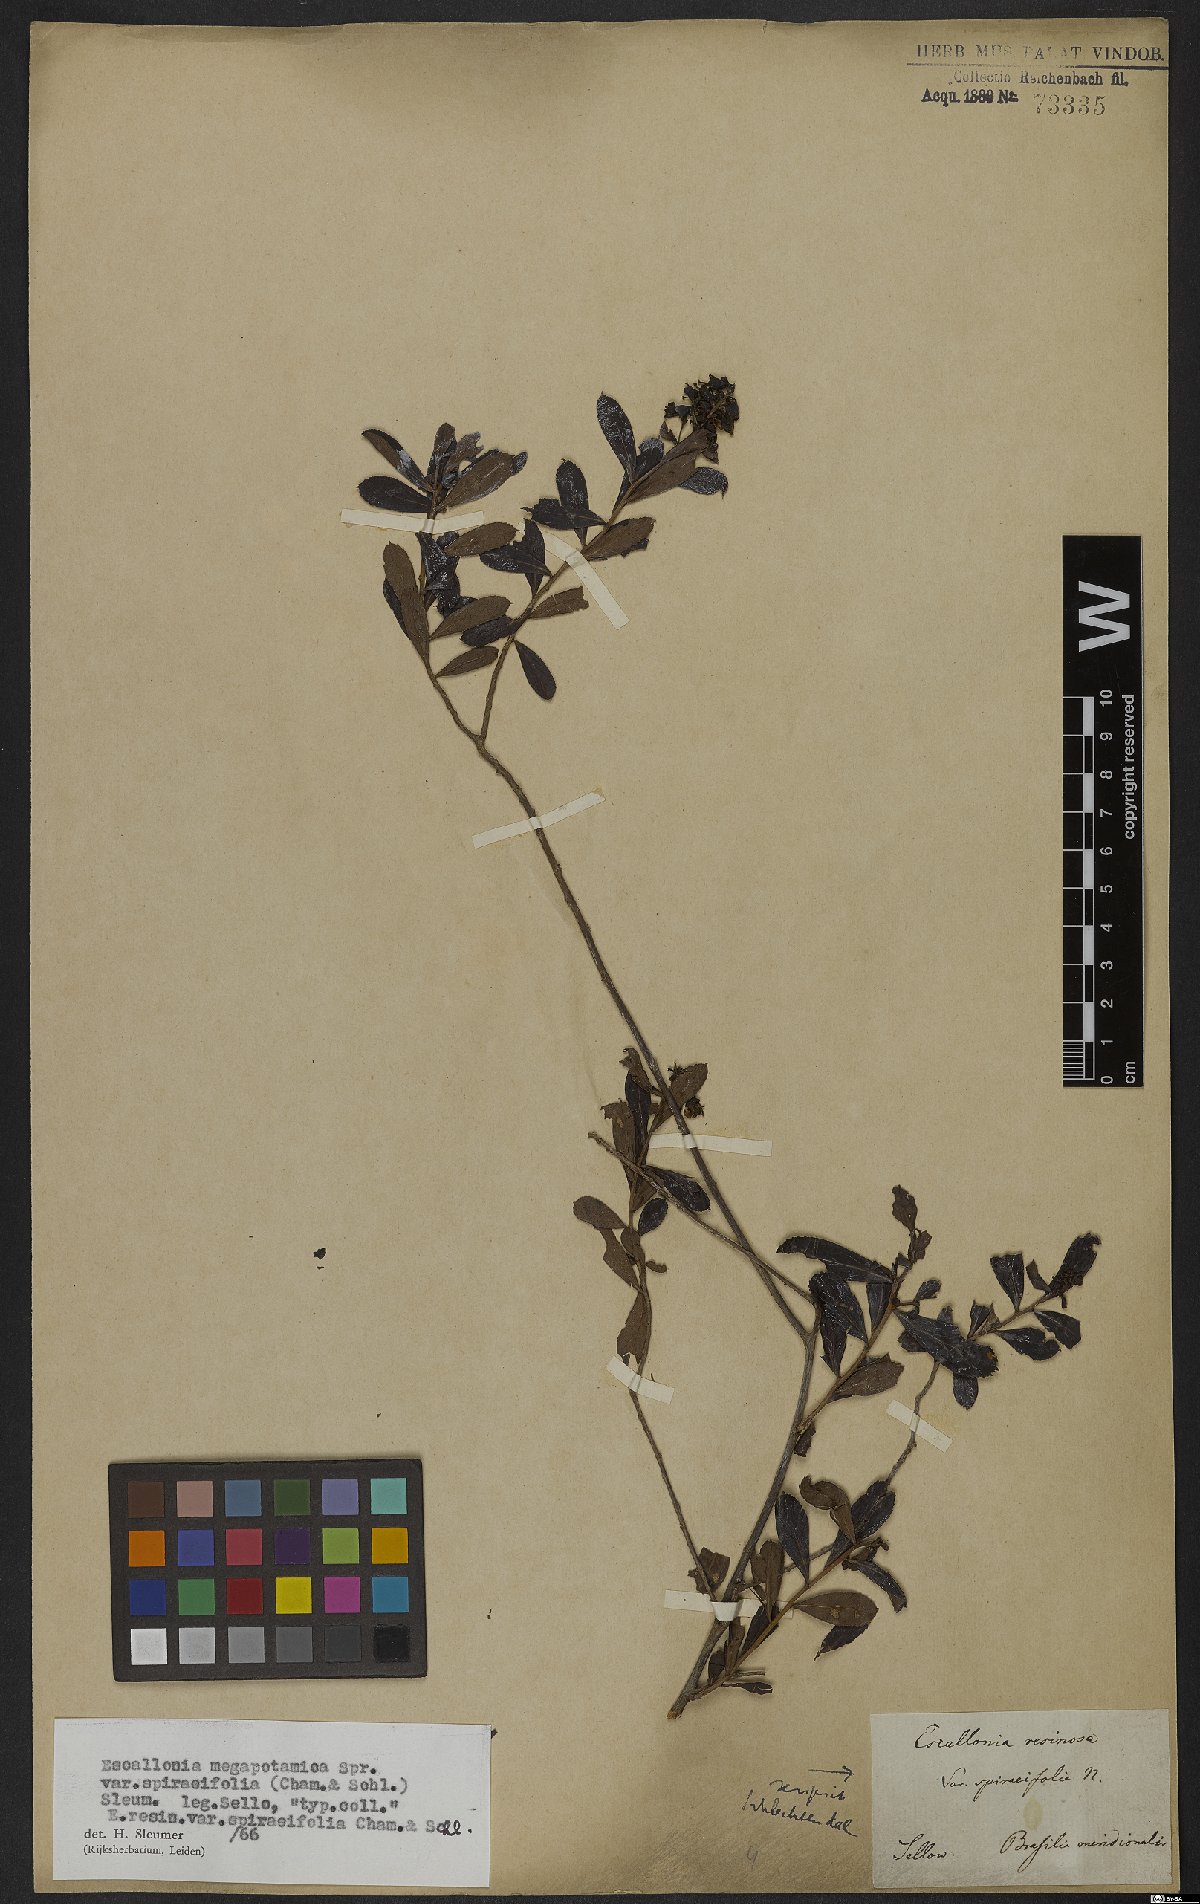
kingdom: Plantae
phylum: Tracheophyta
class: Magnoliopsida
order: Escalloniales
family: Escalloniaceae
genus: Escallonia
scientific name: Escallonia megapotamica
